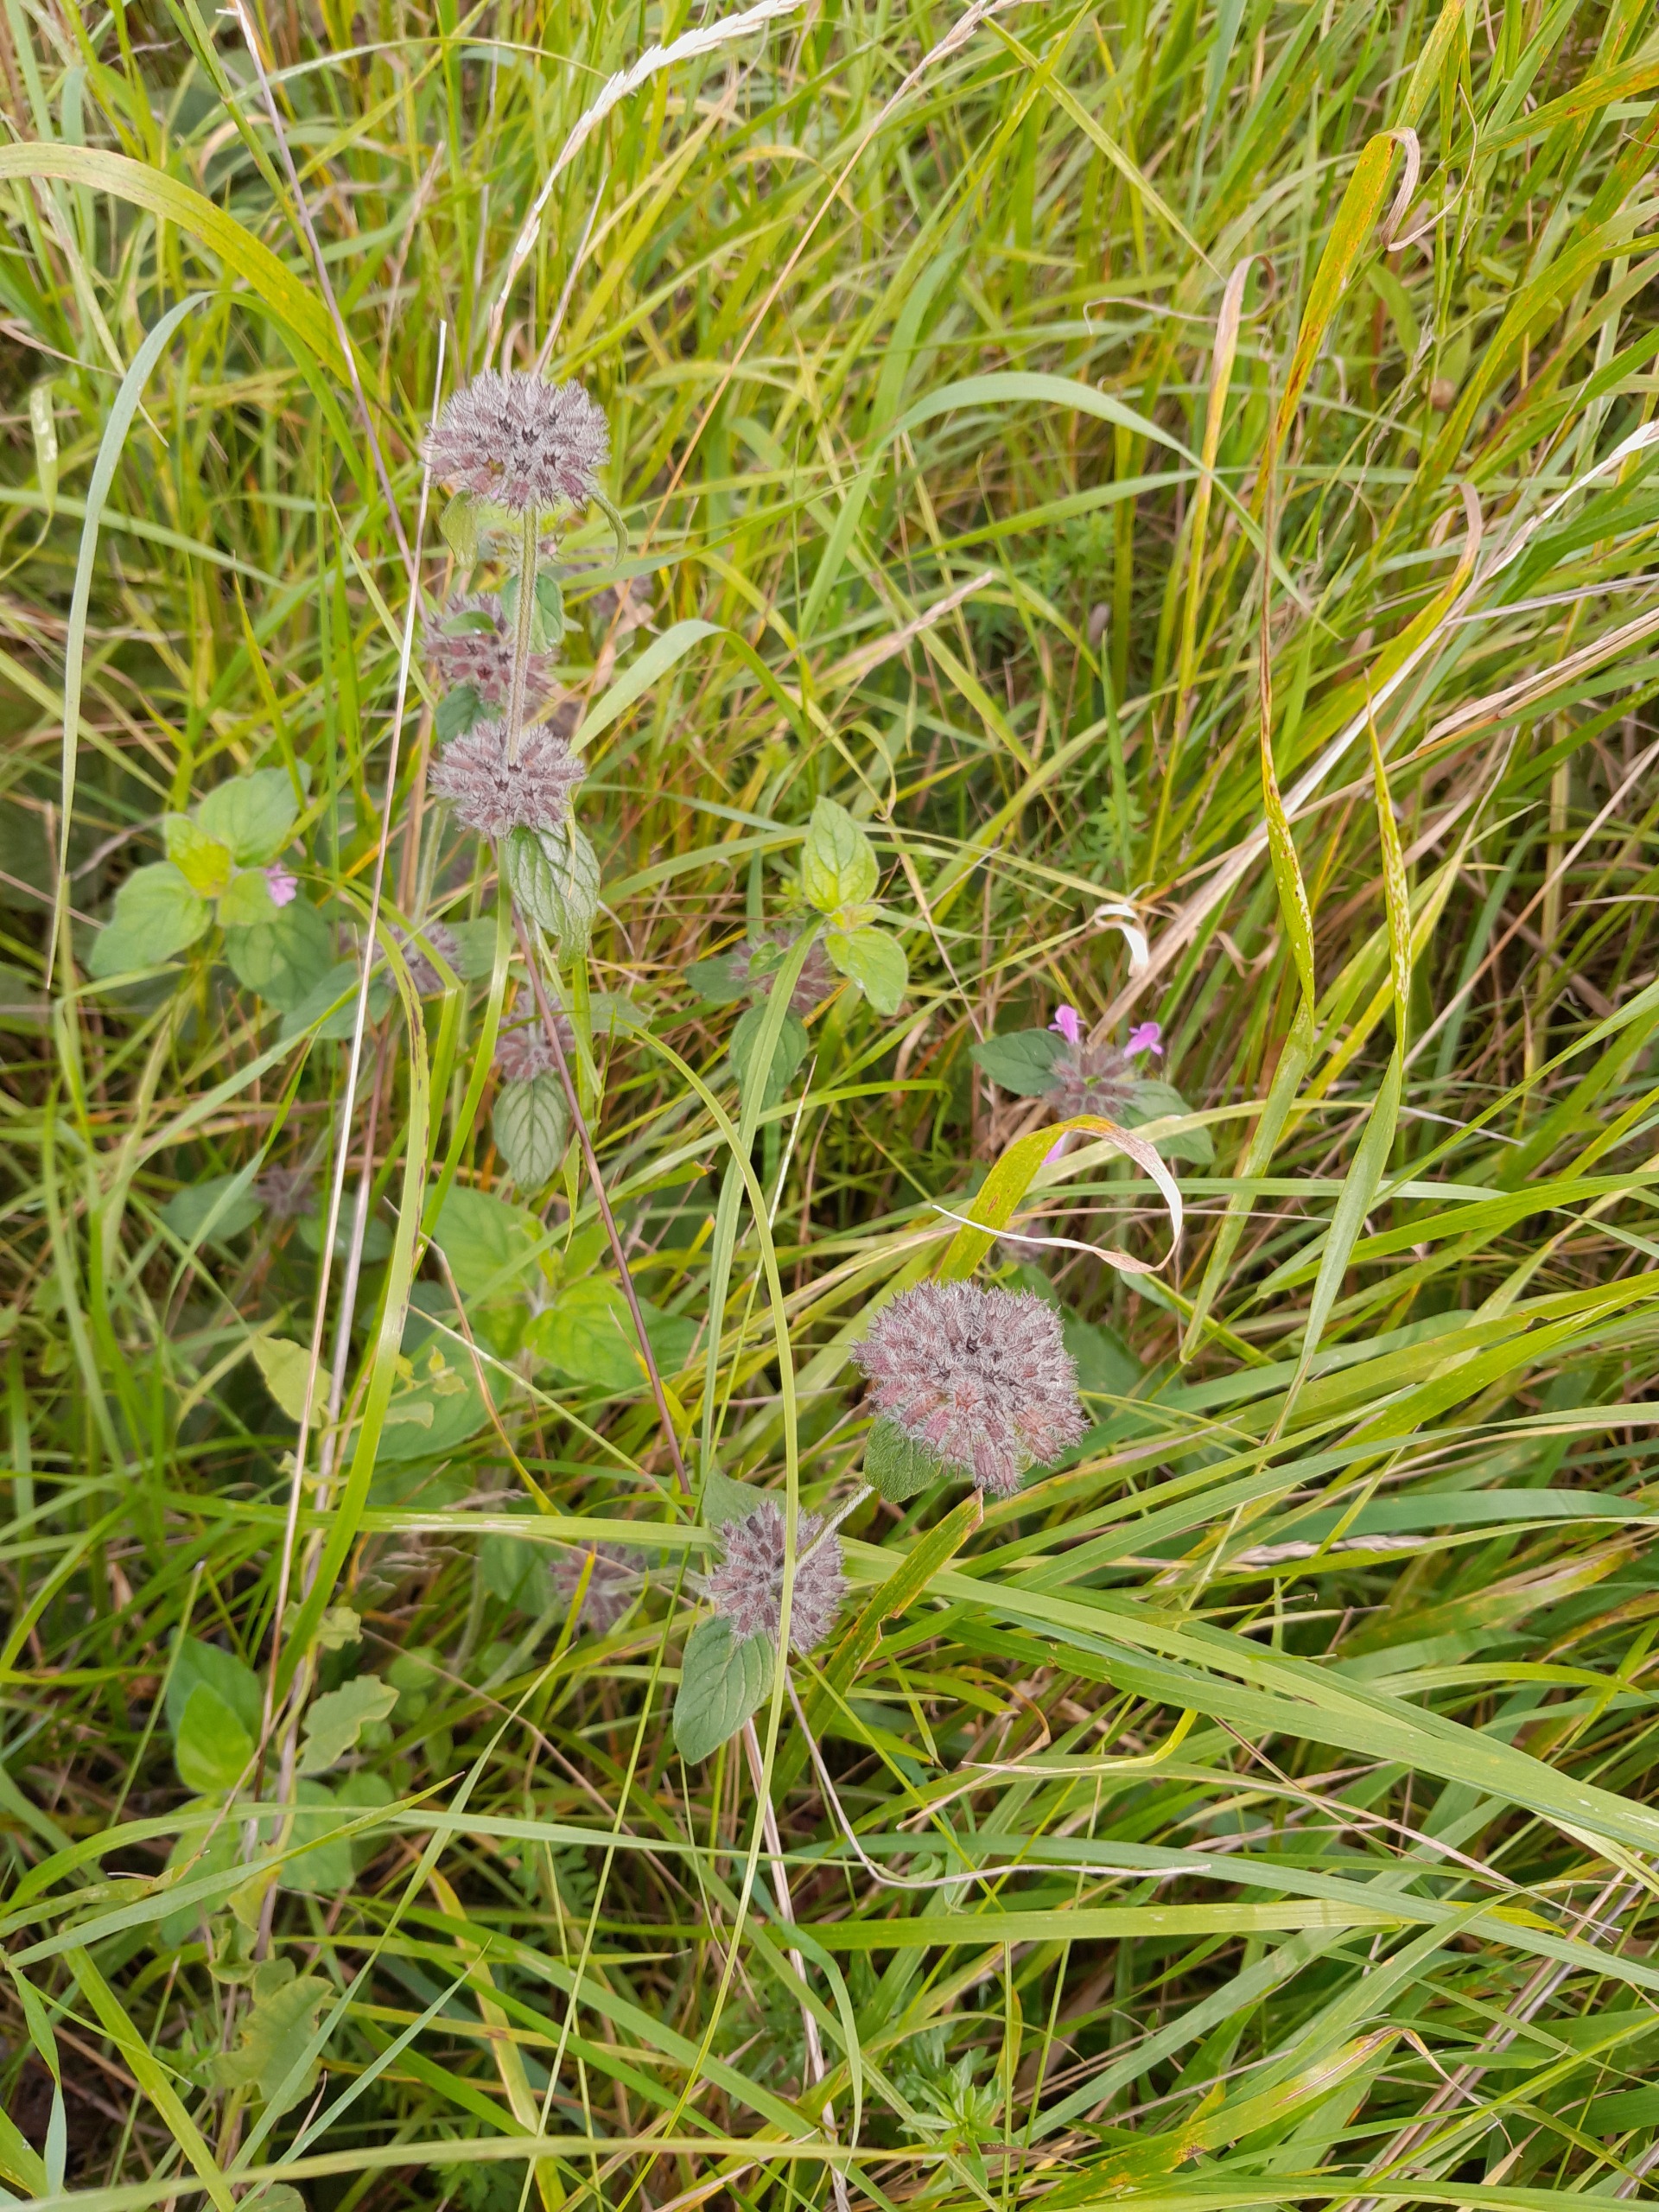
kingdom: Plantae
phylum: Tracheophyta
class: Magnoliopsida
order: Lamiales
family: Lamiaceae
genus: Clinopodium
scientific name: Clinopodium vulgare
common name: Kransbørste
